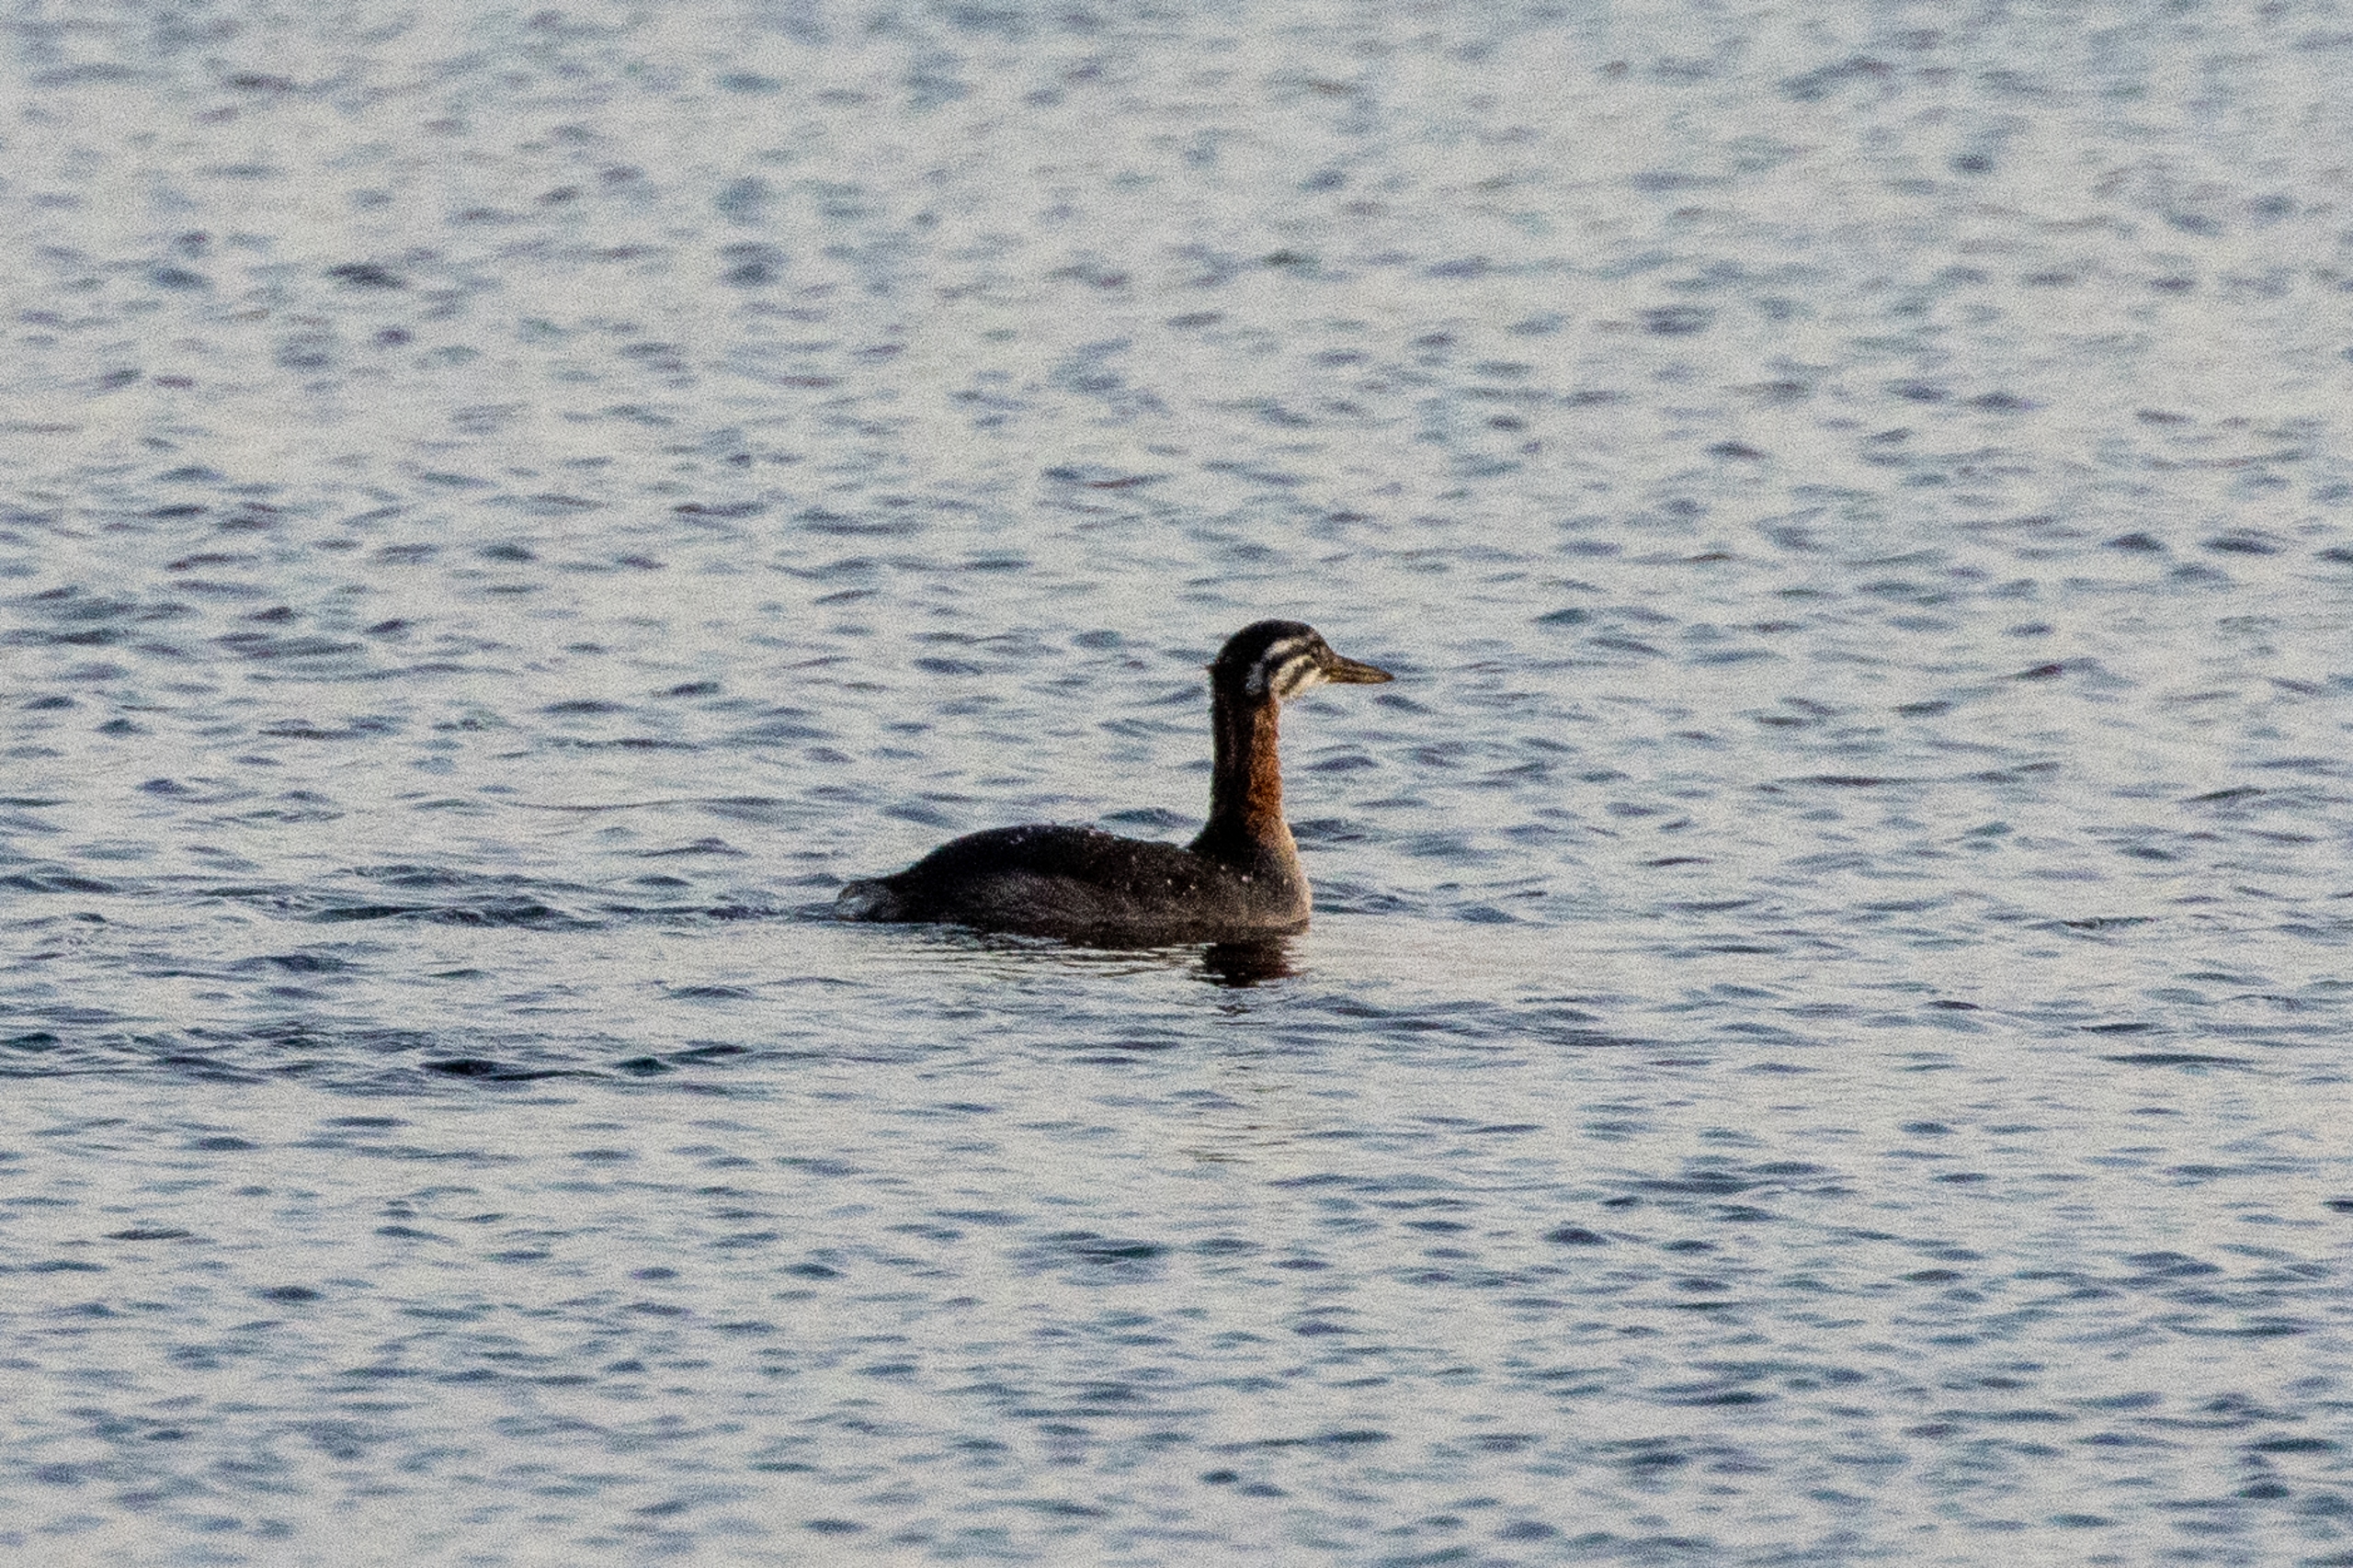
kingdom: Animalia
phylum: Chordata
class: Aves
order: Podicipediformes
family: Podicipedidae
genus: Podiceps
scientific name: Podiceps grisegena
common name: Gråstrubet lappedykker
